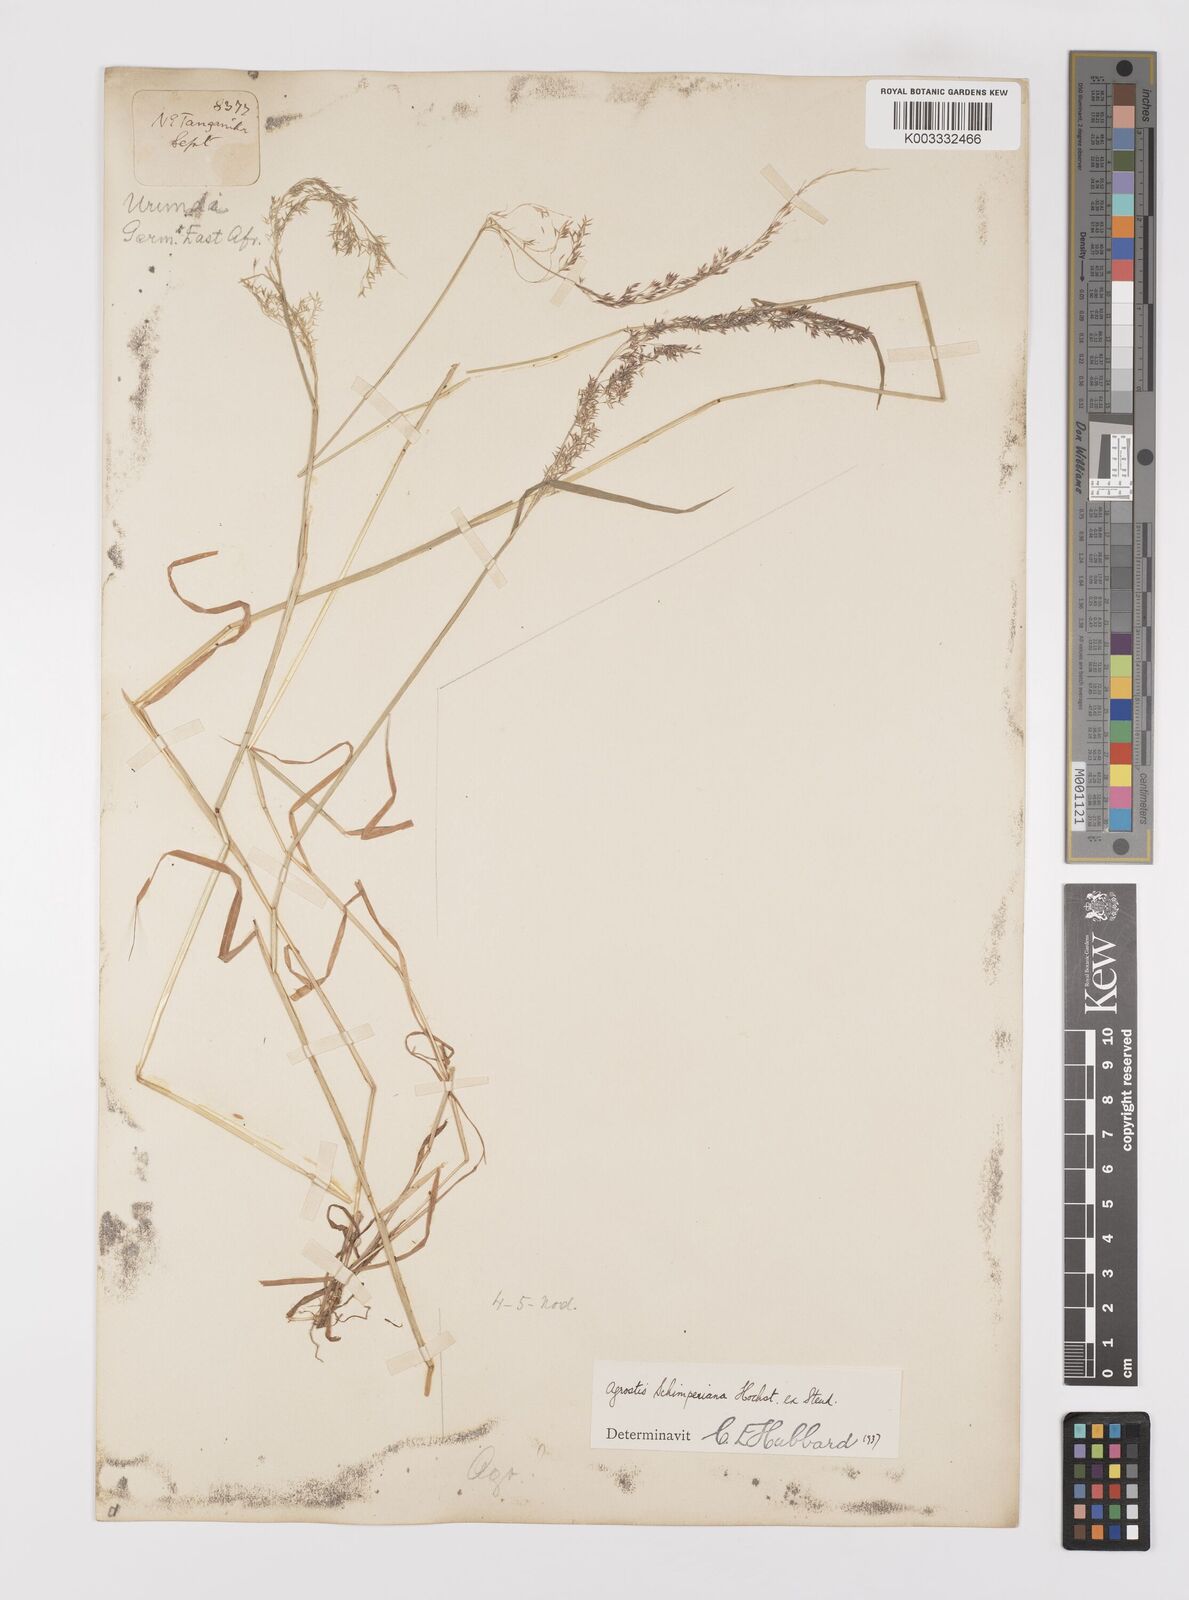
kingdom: Plantae
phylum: Tracheophyta
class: Liliopsida
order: Poales
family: Poaceae
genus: Polypogon
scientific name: Polypogon schimperianus
